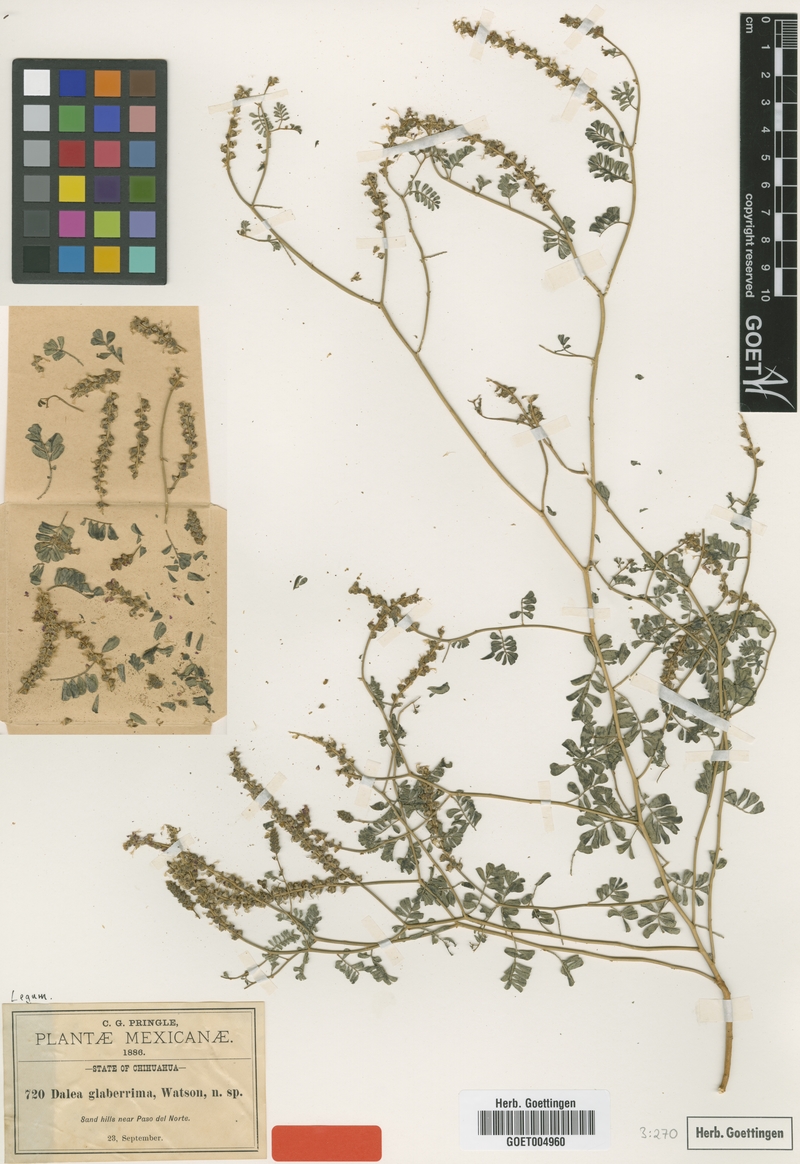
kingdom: Plantae
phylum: Tracheophyta
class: Magnoliopsida
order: Fabales
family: Fabaceae
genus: Dalea
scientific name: Dalea lanata
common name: Woolly dalea
